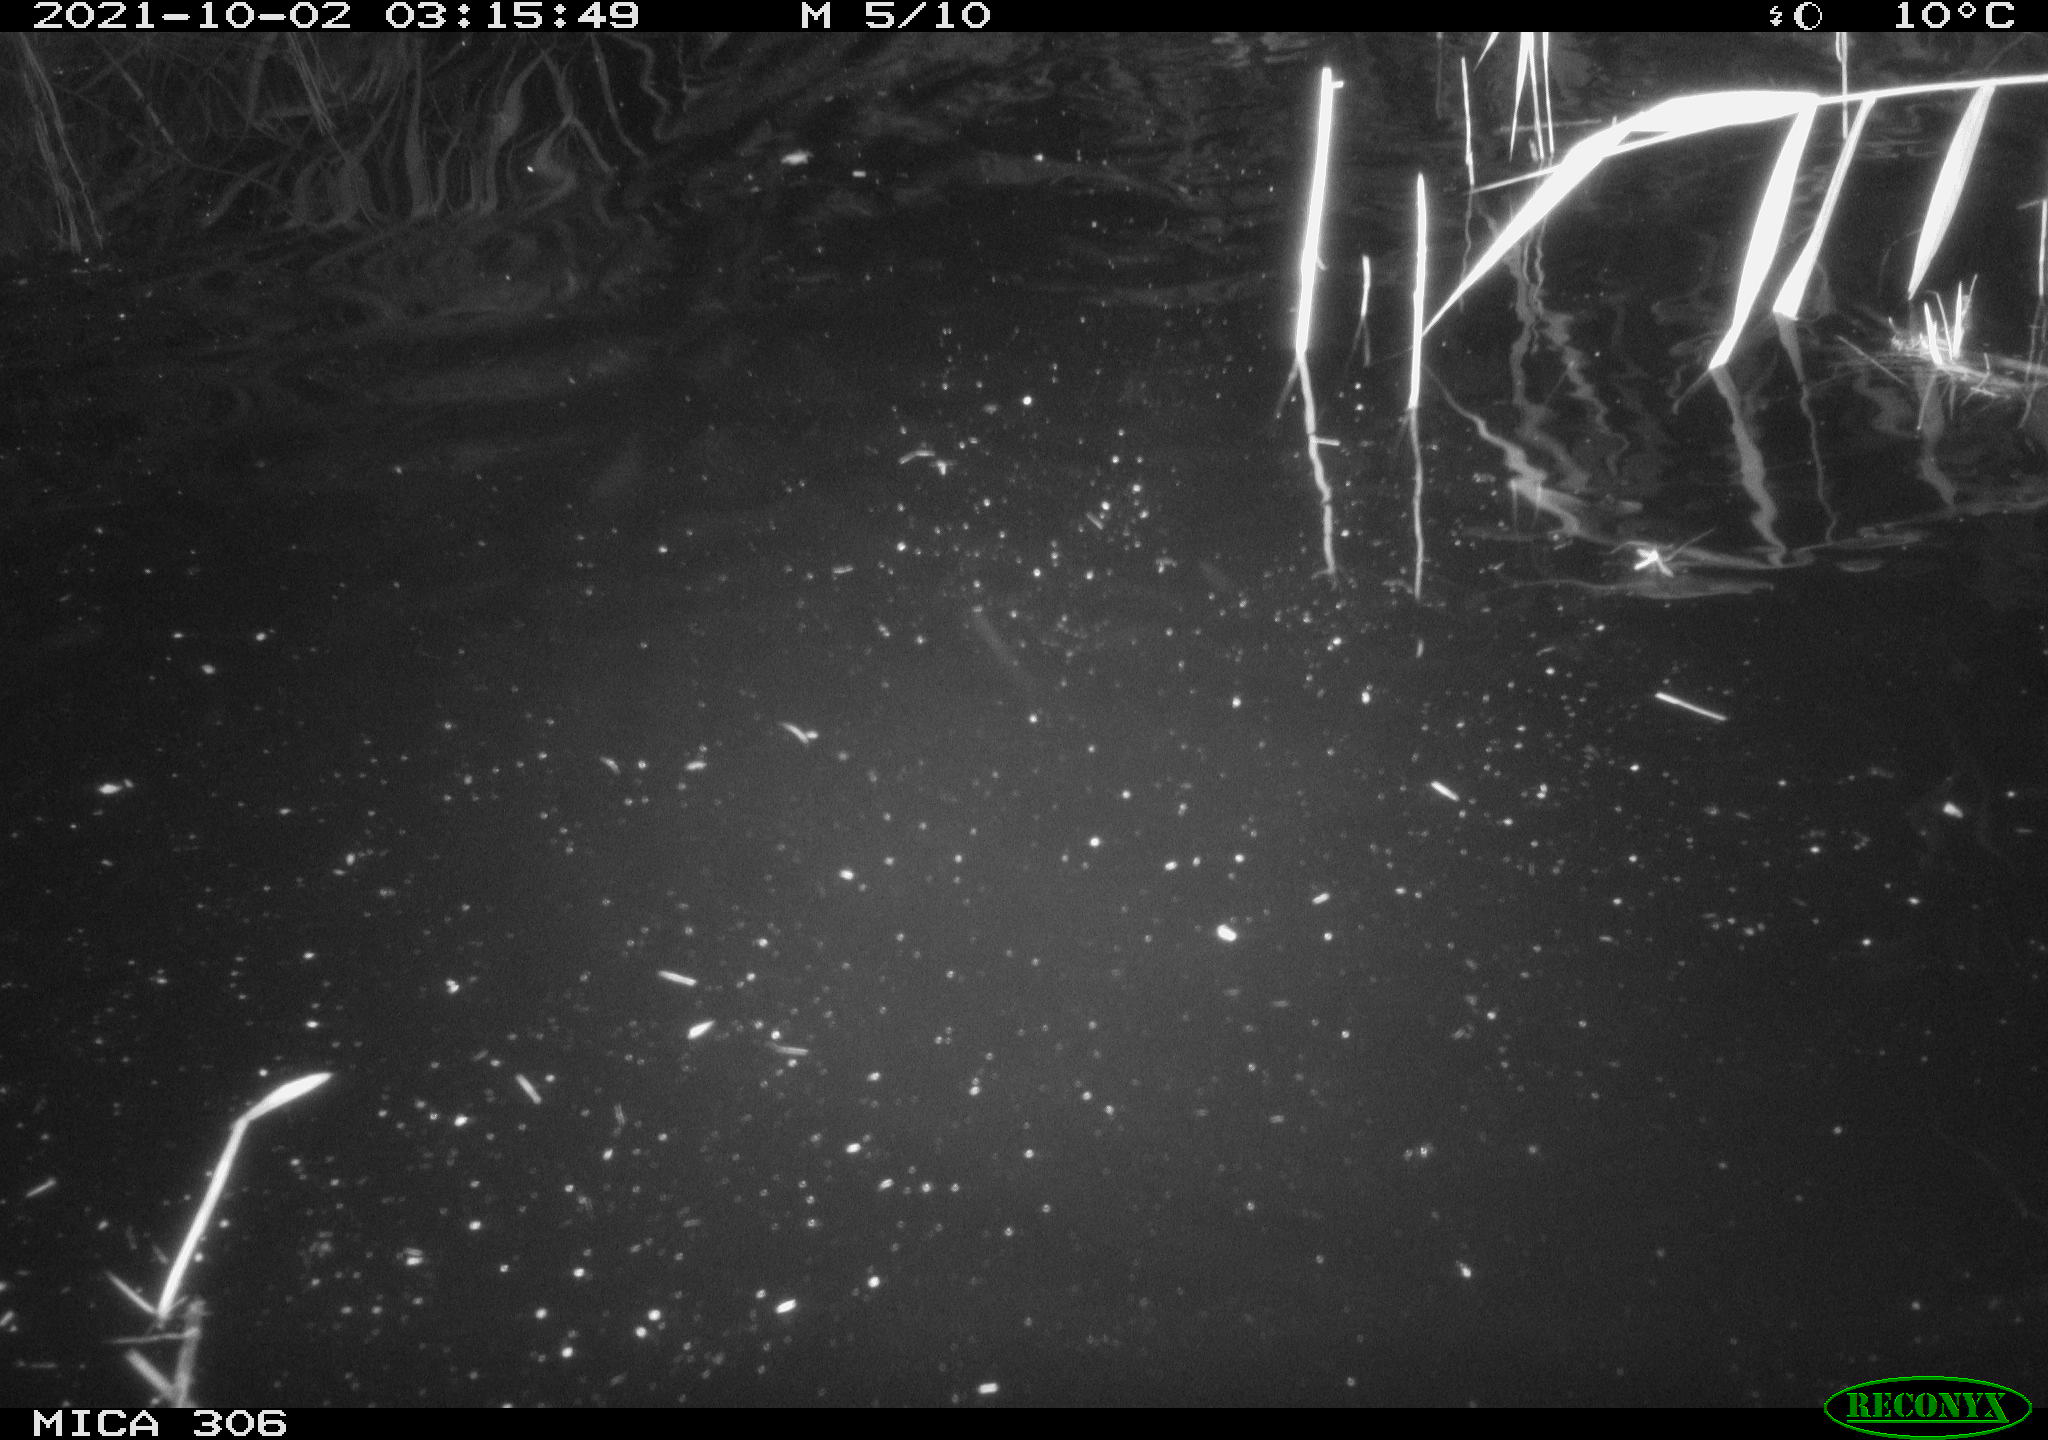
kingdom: Animalia
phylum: Chordata
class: Mammalia
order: Rodentia
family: Cricetidae
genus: Ondatra
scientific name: Ondatra zibethicus
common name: Muskrat
